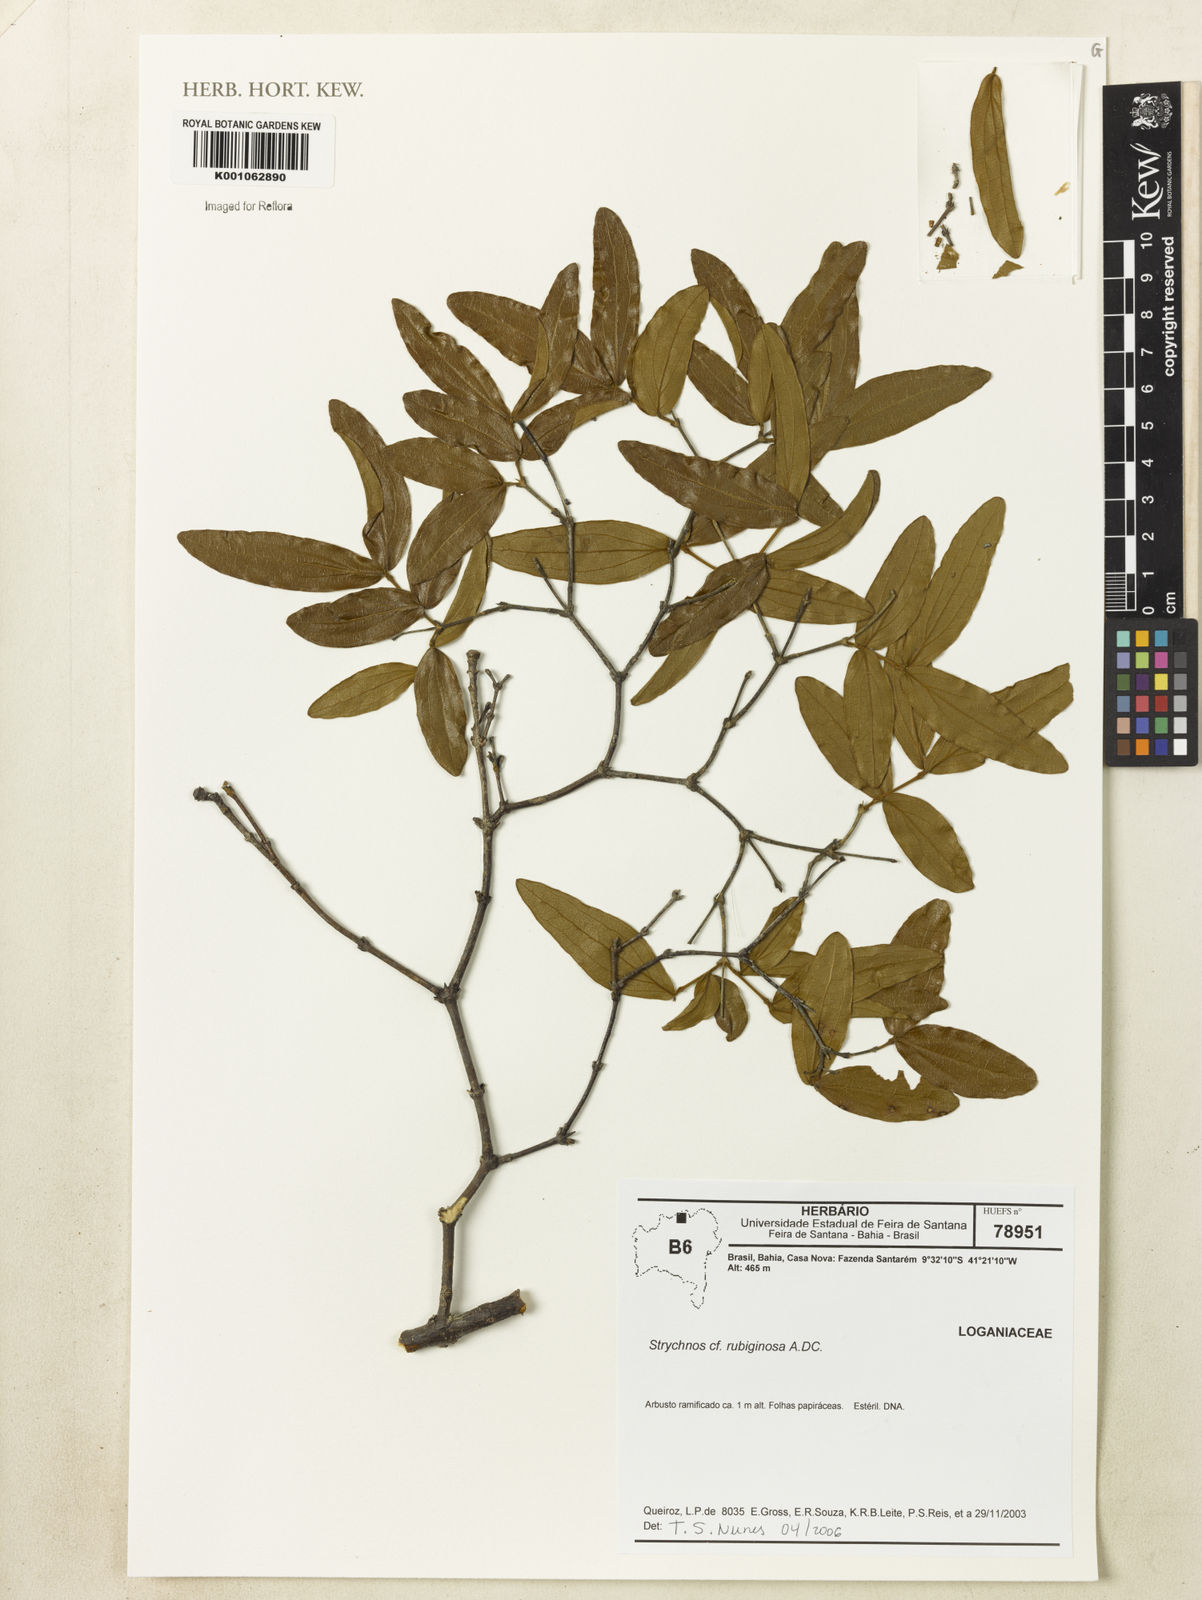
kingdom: Plantae
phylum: Tracheophyta
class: Magnoliopsida
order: Gentianales
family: Loganiaceae
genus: Strychnos
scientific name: Strychnos rubiginosa
